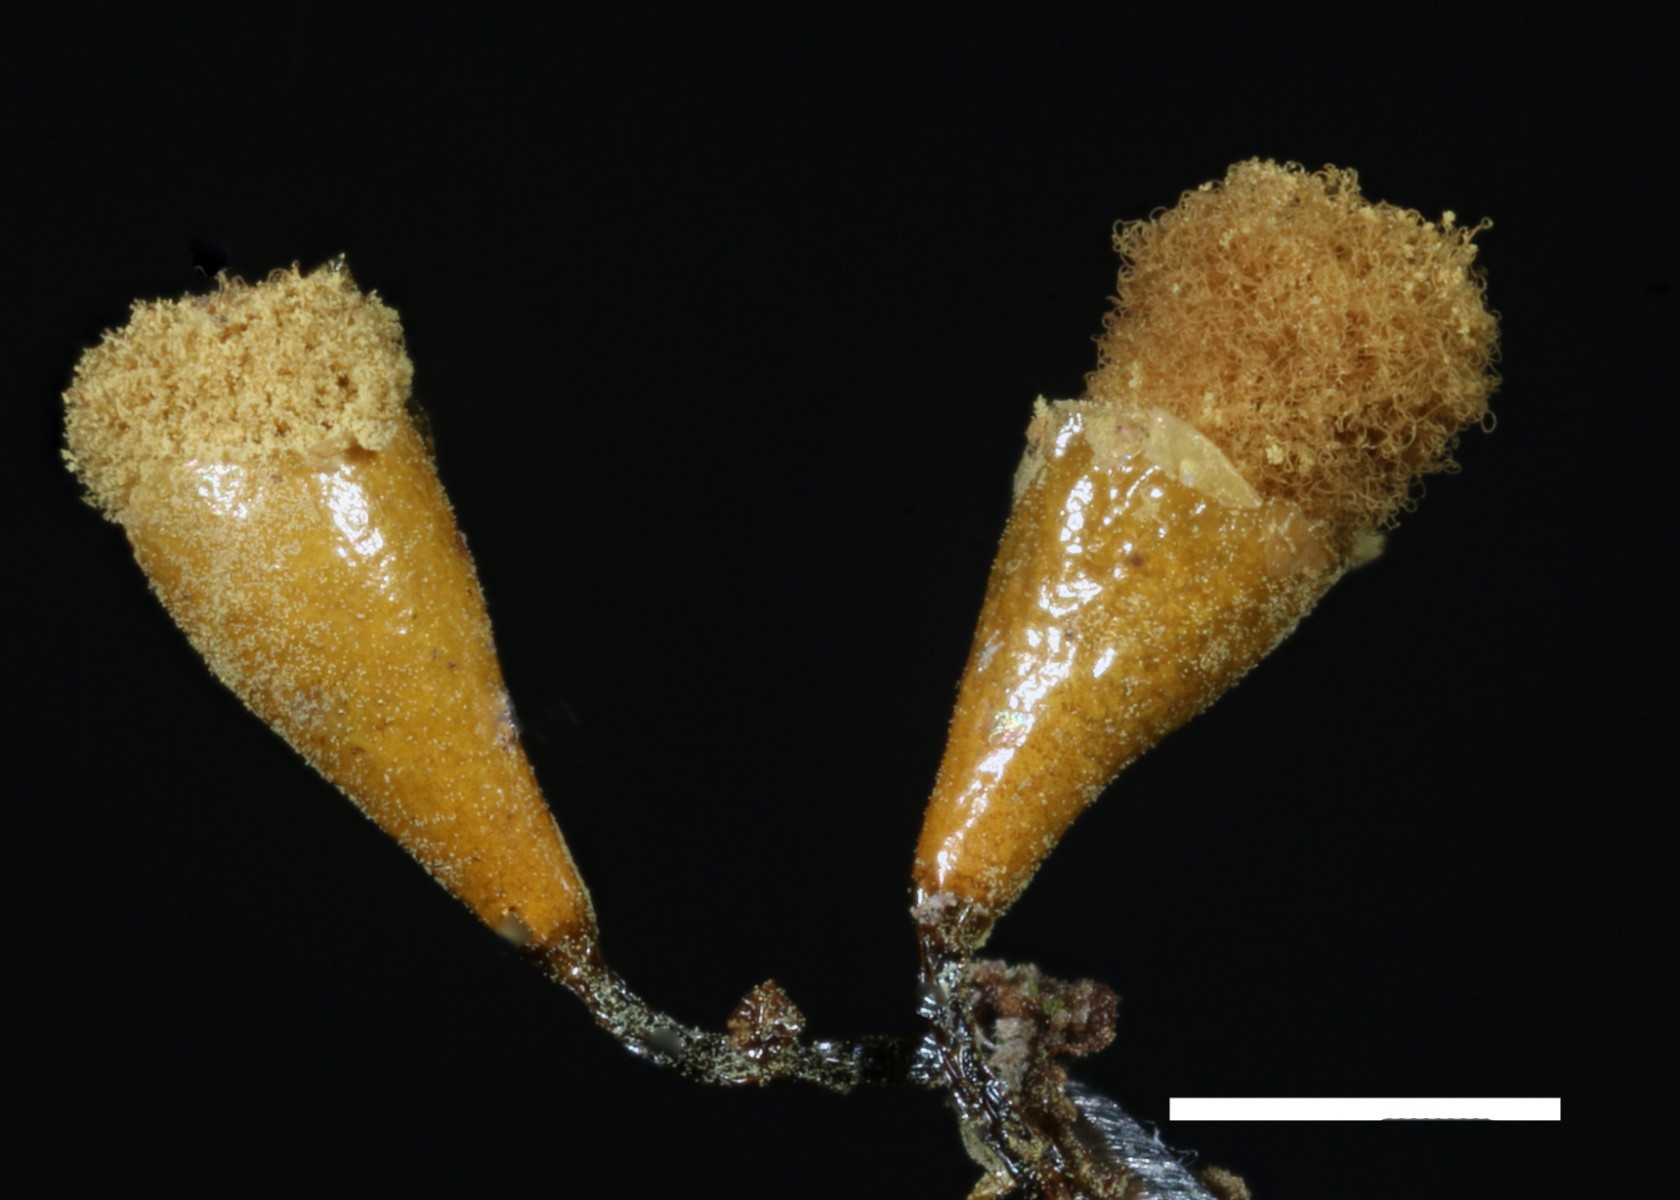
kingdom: Protozoa
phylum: Mycetozoa
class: Myxomycetes
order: Trichiales
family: Arcyriaceae
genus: Hemitrichia
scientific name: Hemitrichia clavata
